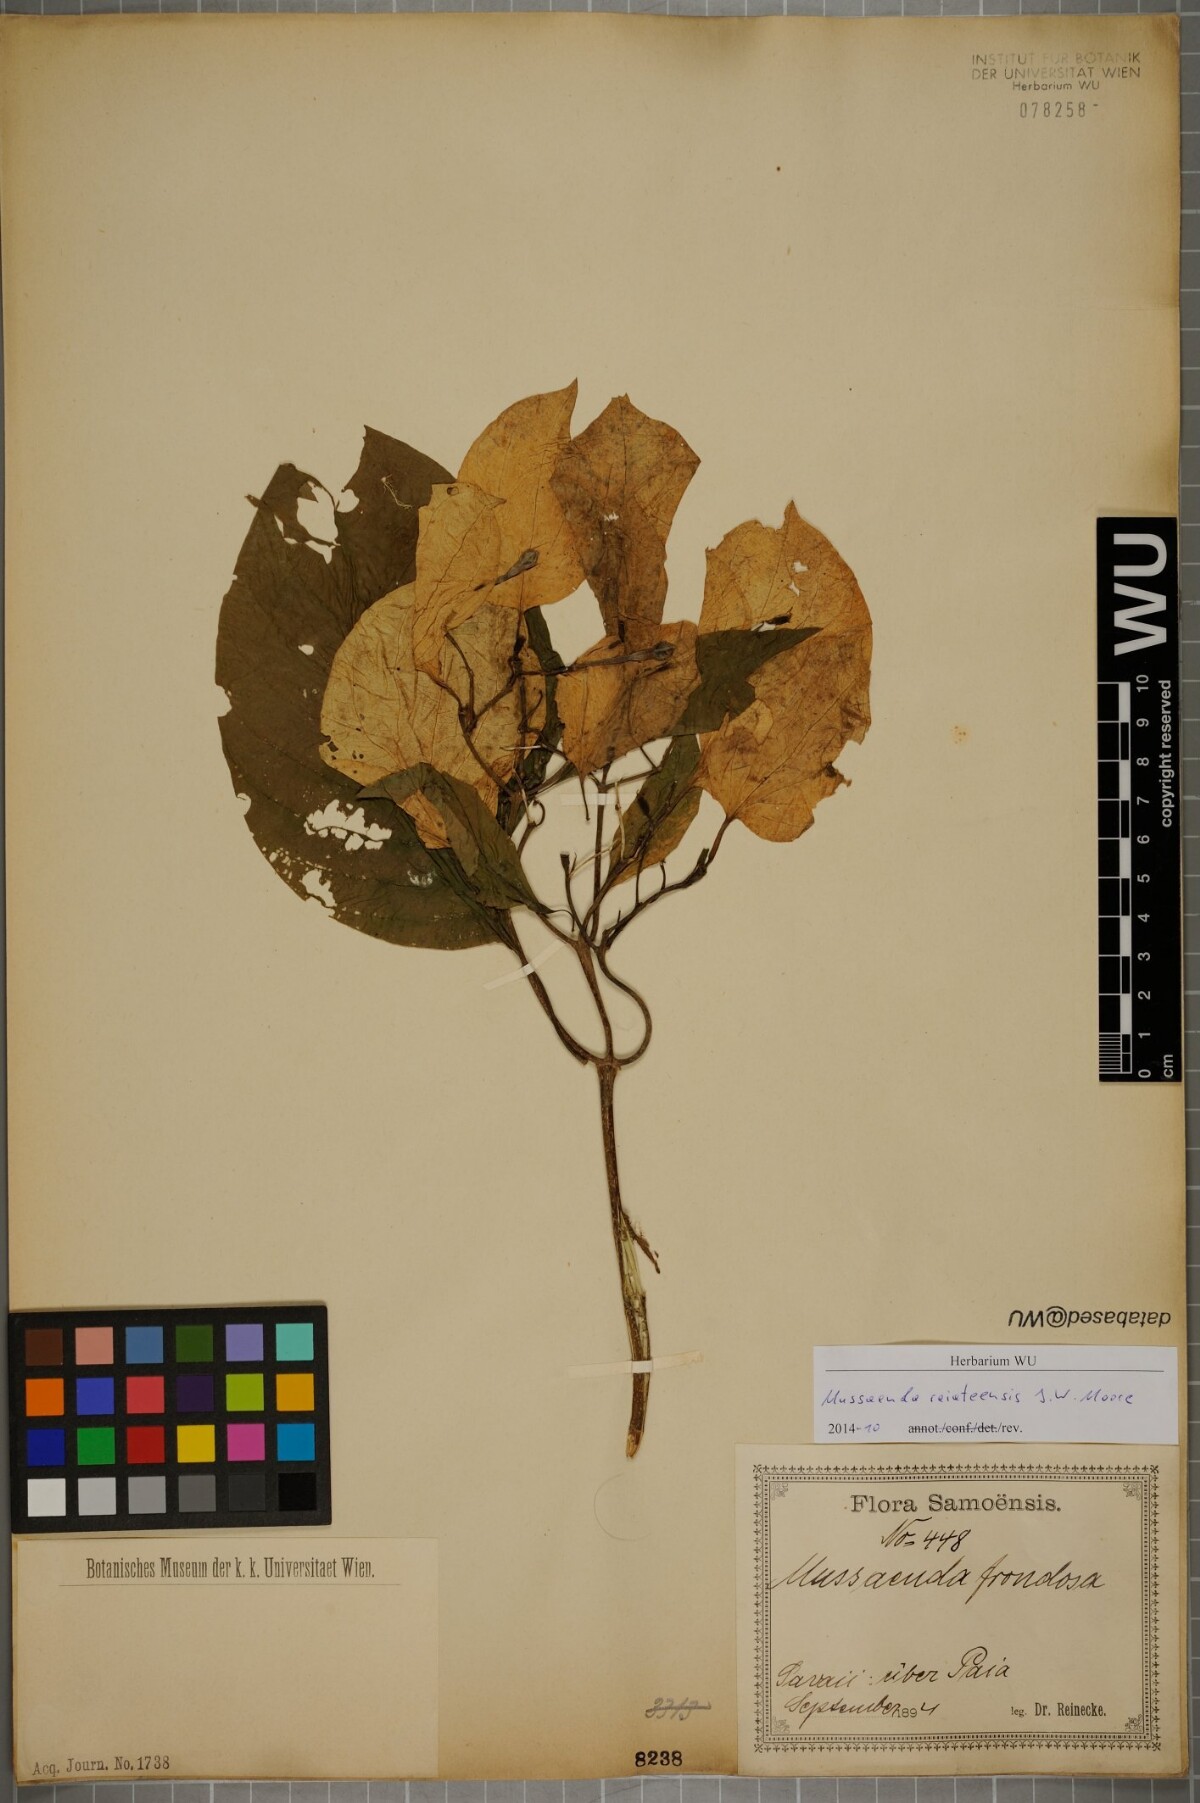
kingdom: Plantae
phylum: Tracheophyta
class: Magnoliopsida
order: Gentianales
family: Rubiaceae
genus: Mussaenda
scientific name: Mussaenda raiateensis
